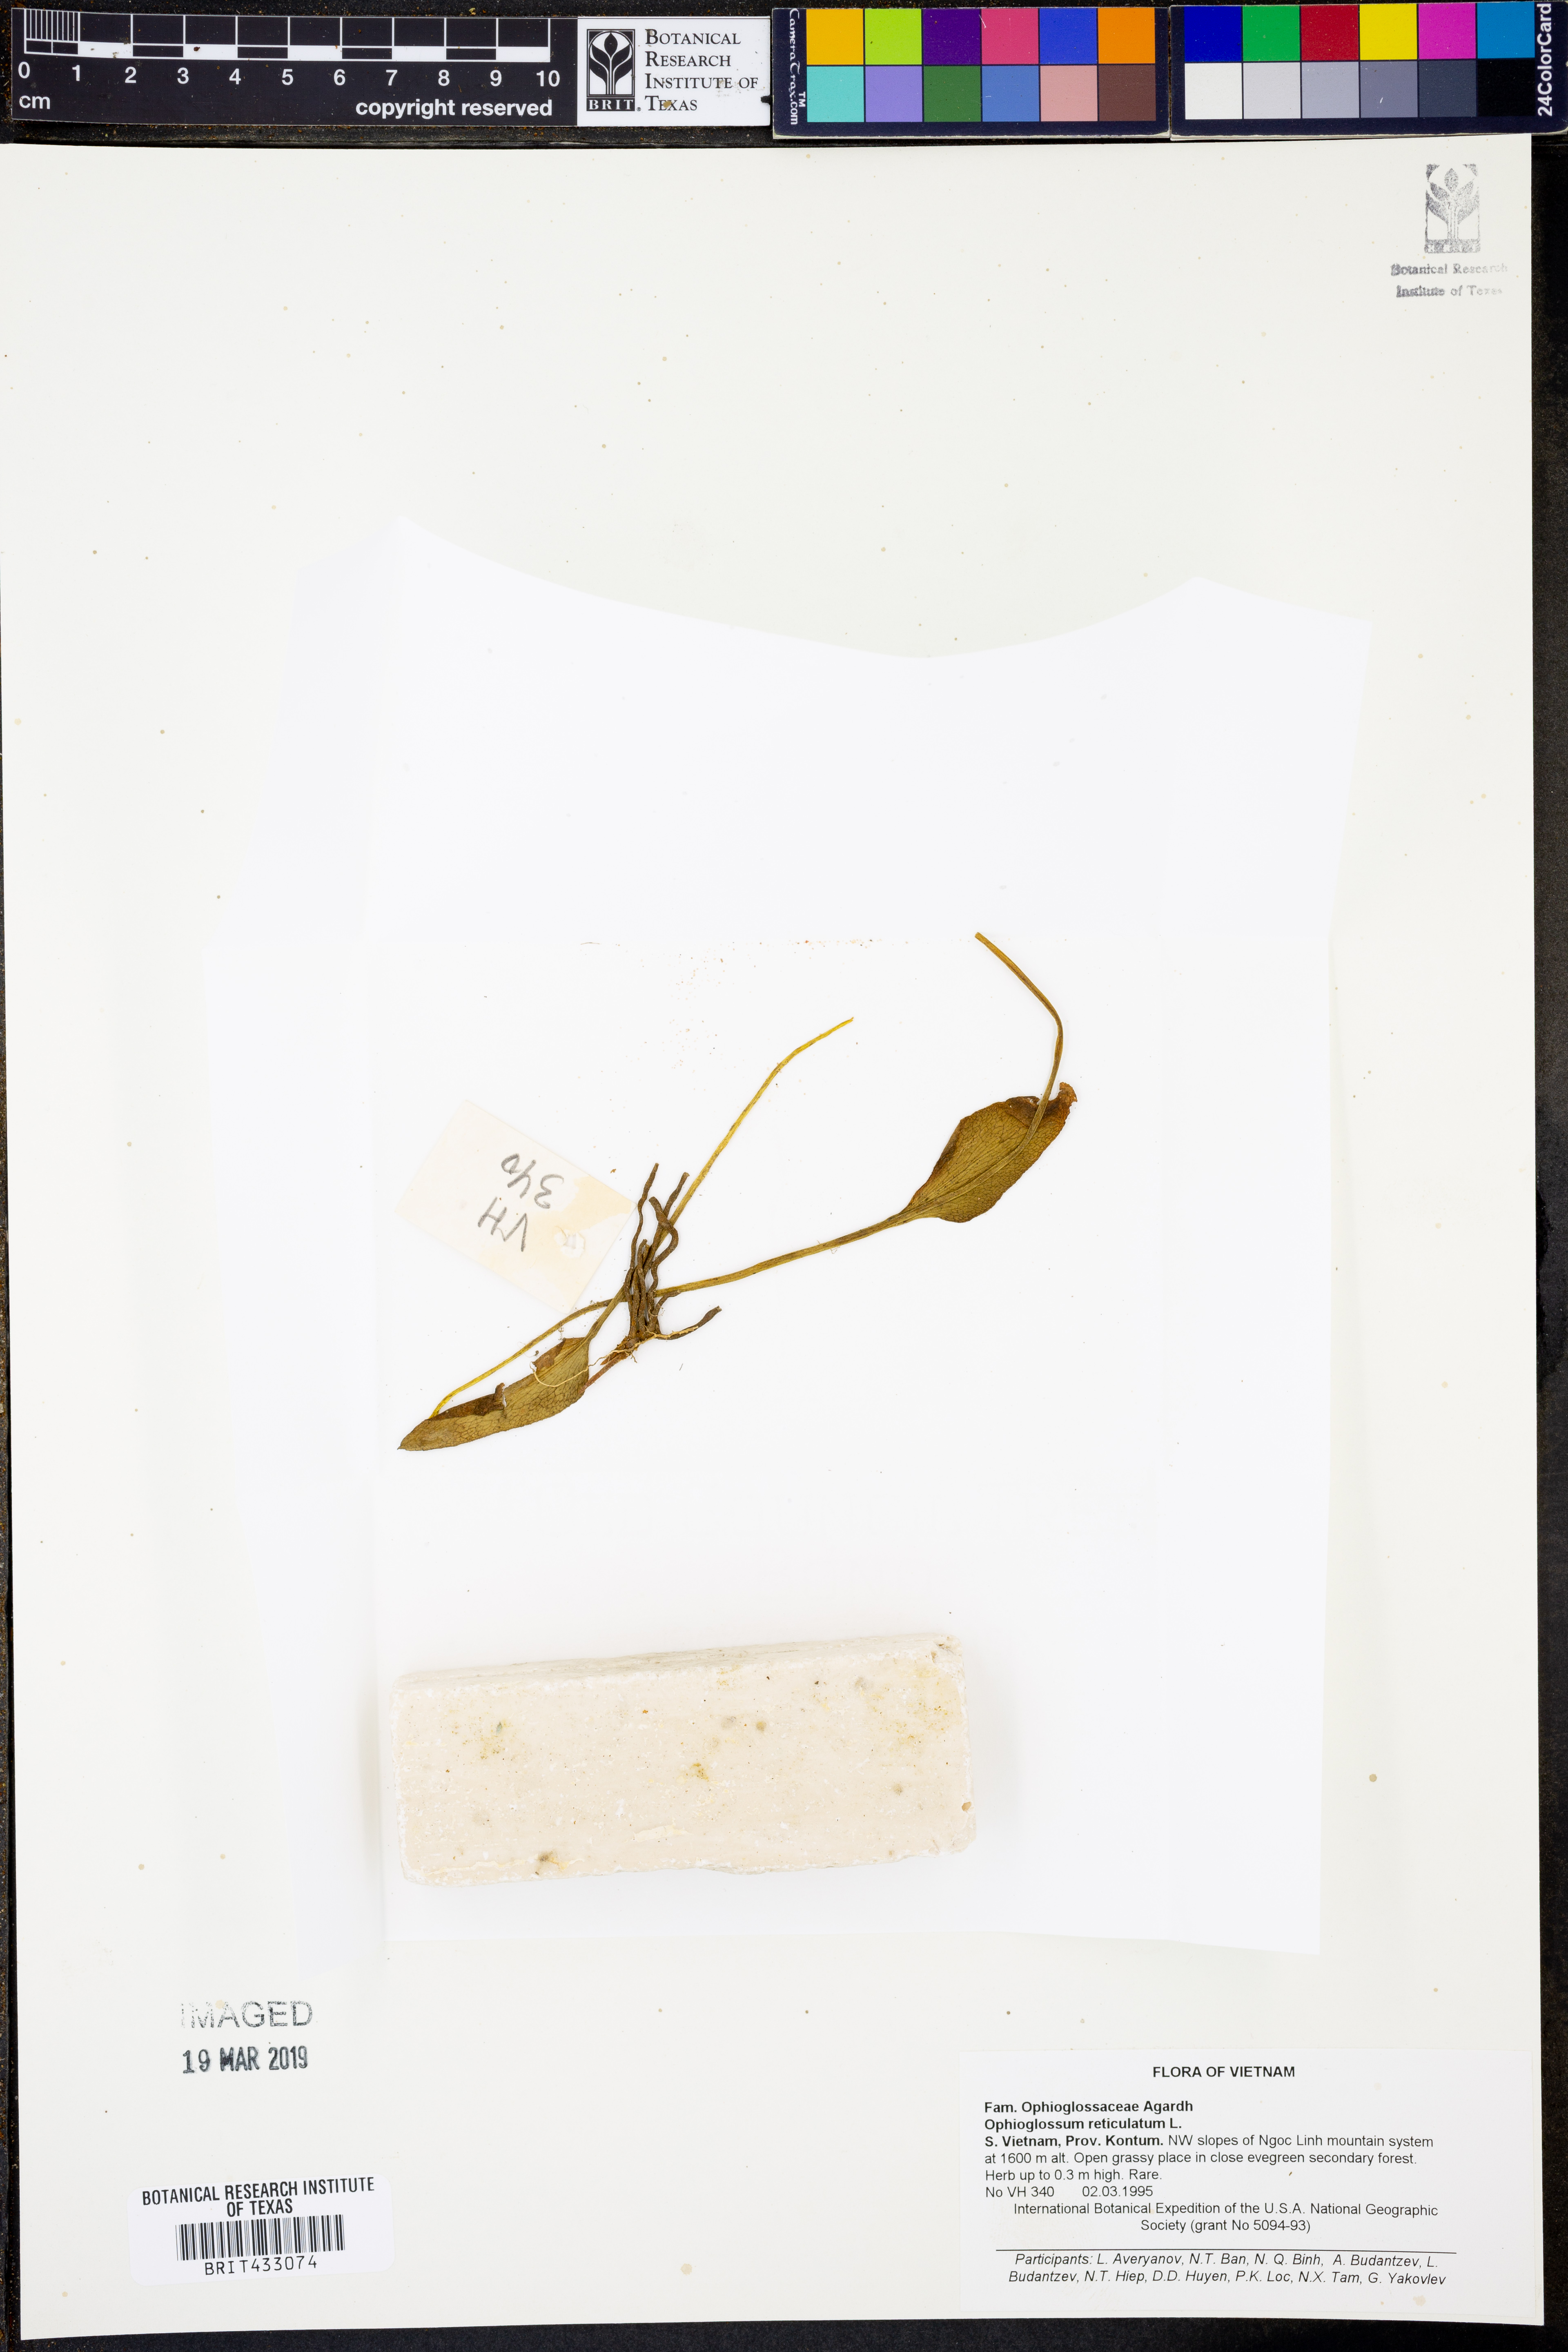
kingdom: Plantae
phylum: Tracheophyta
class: Polypodiopsida
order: Ophioglossales
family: Ophioglossaceae
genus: Ophioglossum
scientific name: Ophioglossum reticulatum
